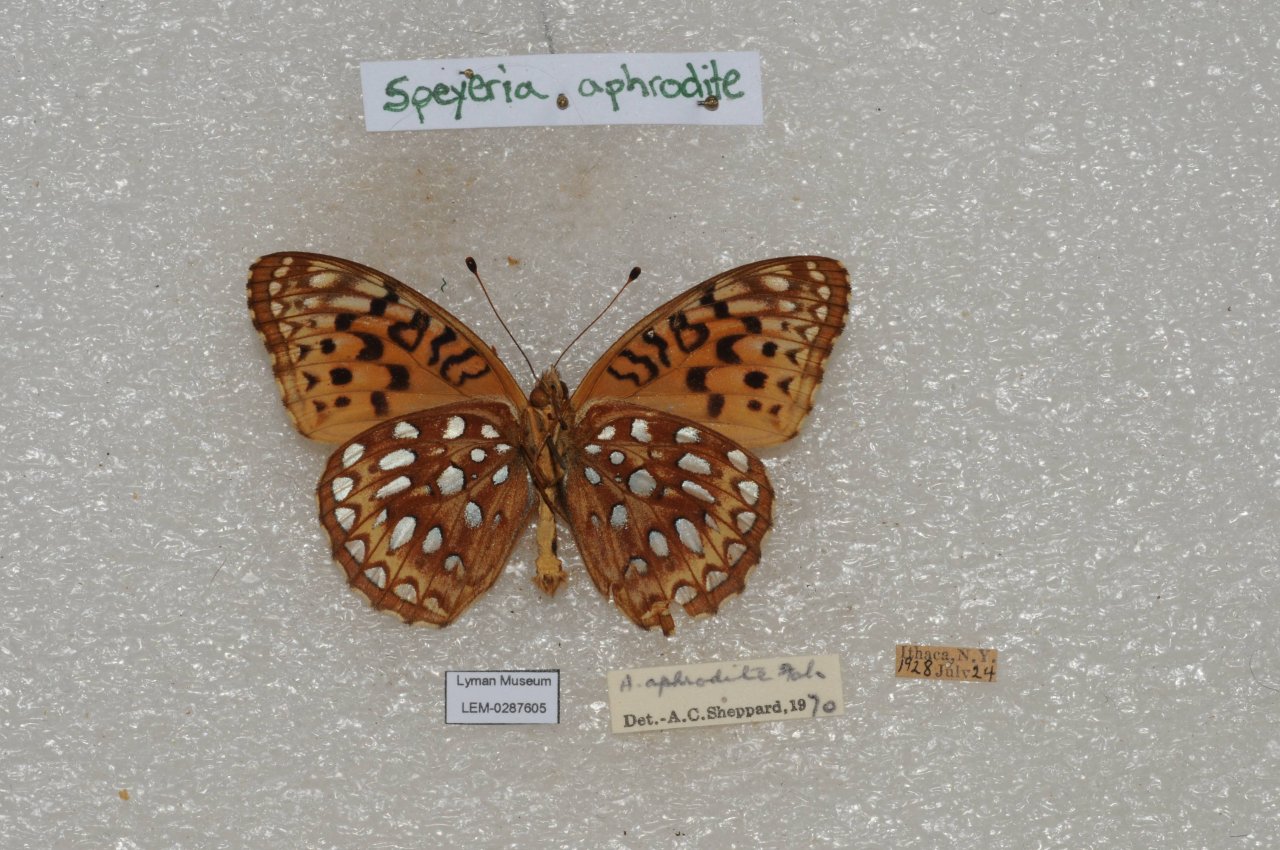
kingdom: Animalia
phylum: Arthropoda
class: Insecta
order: Lepidoptera
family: Nymphalidae
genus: Speyeria
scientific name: Speyeria aphrodite
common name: Aphrodite Fritillary
